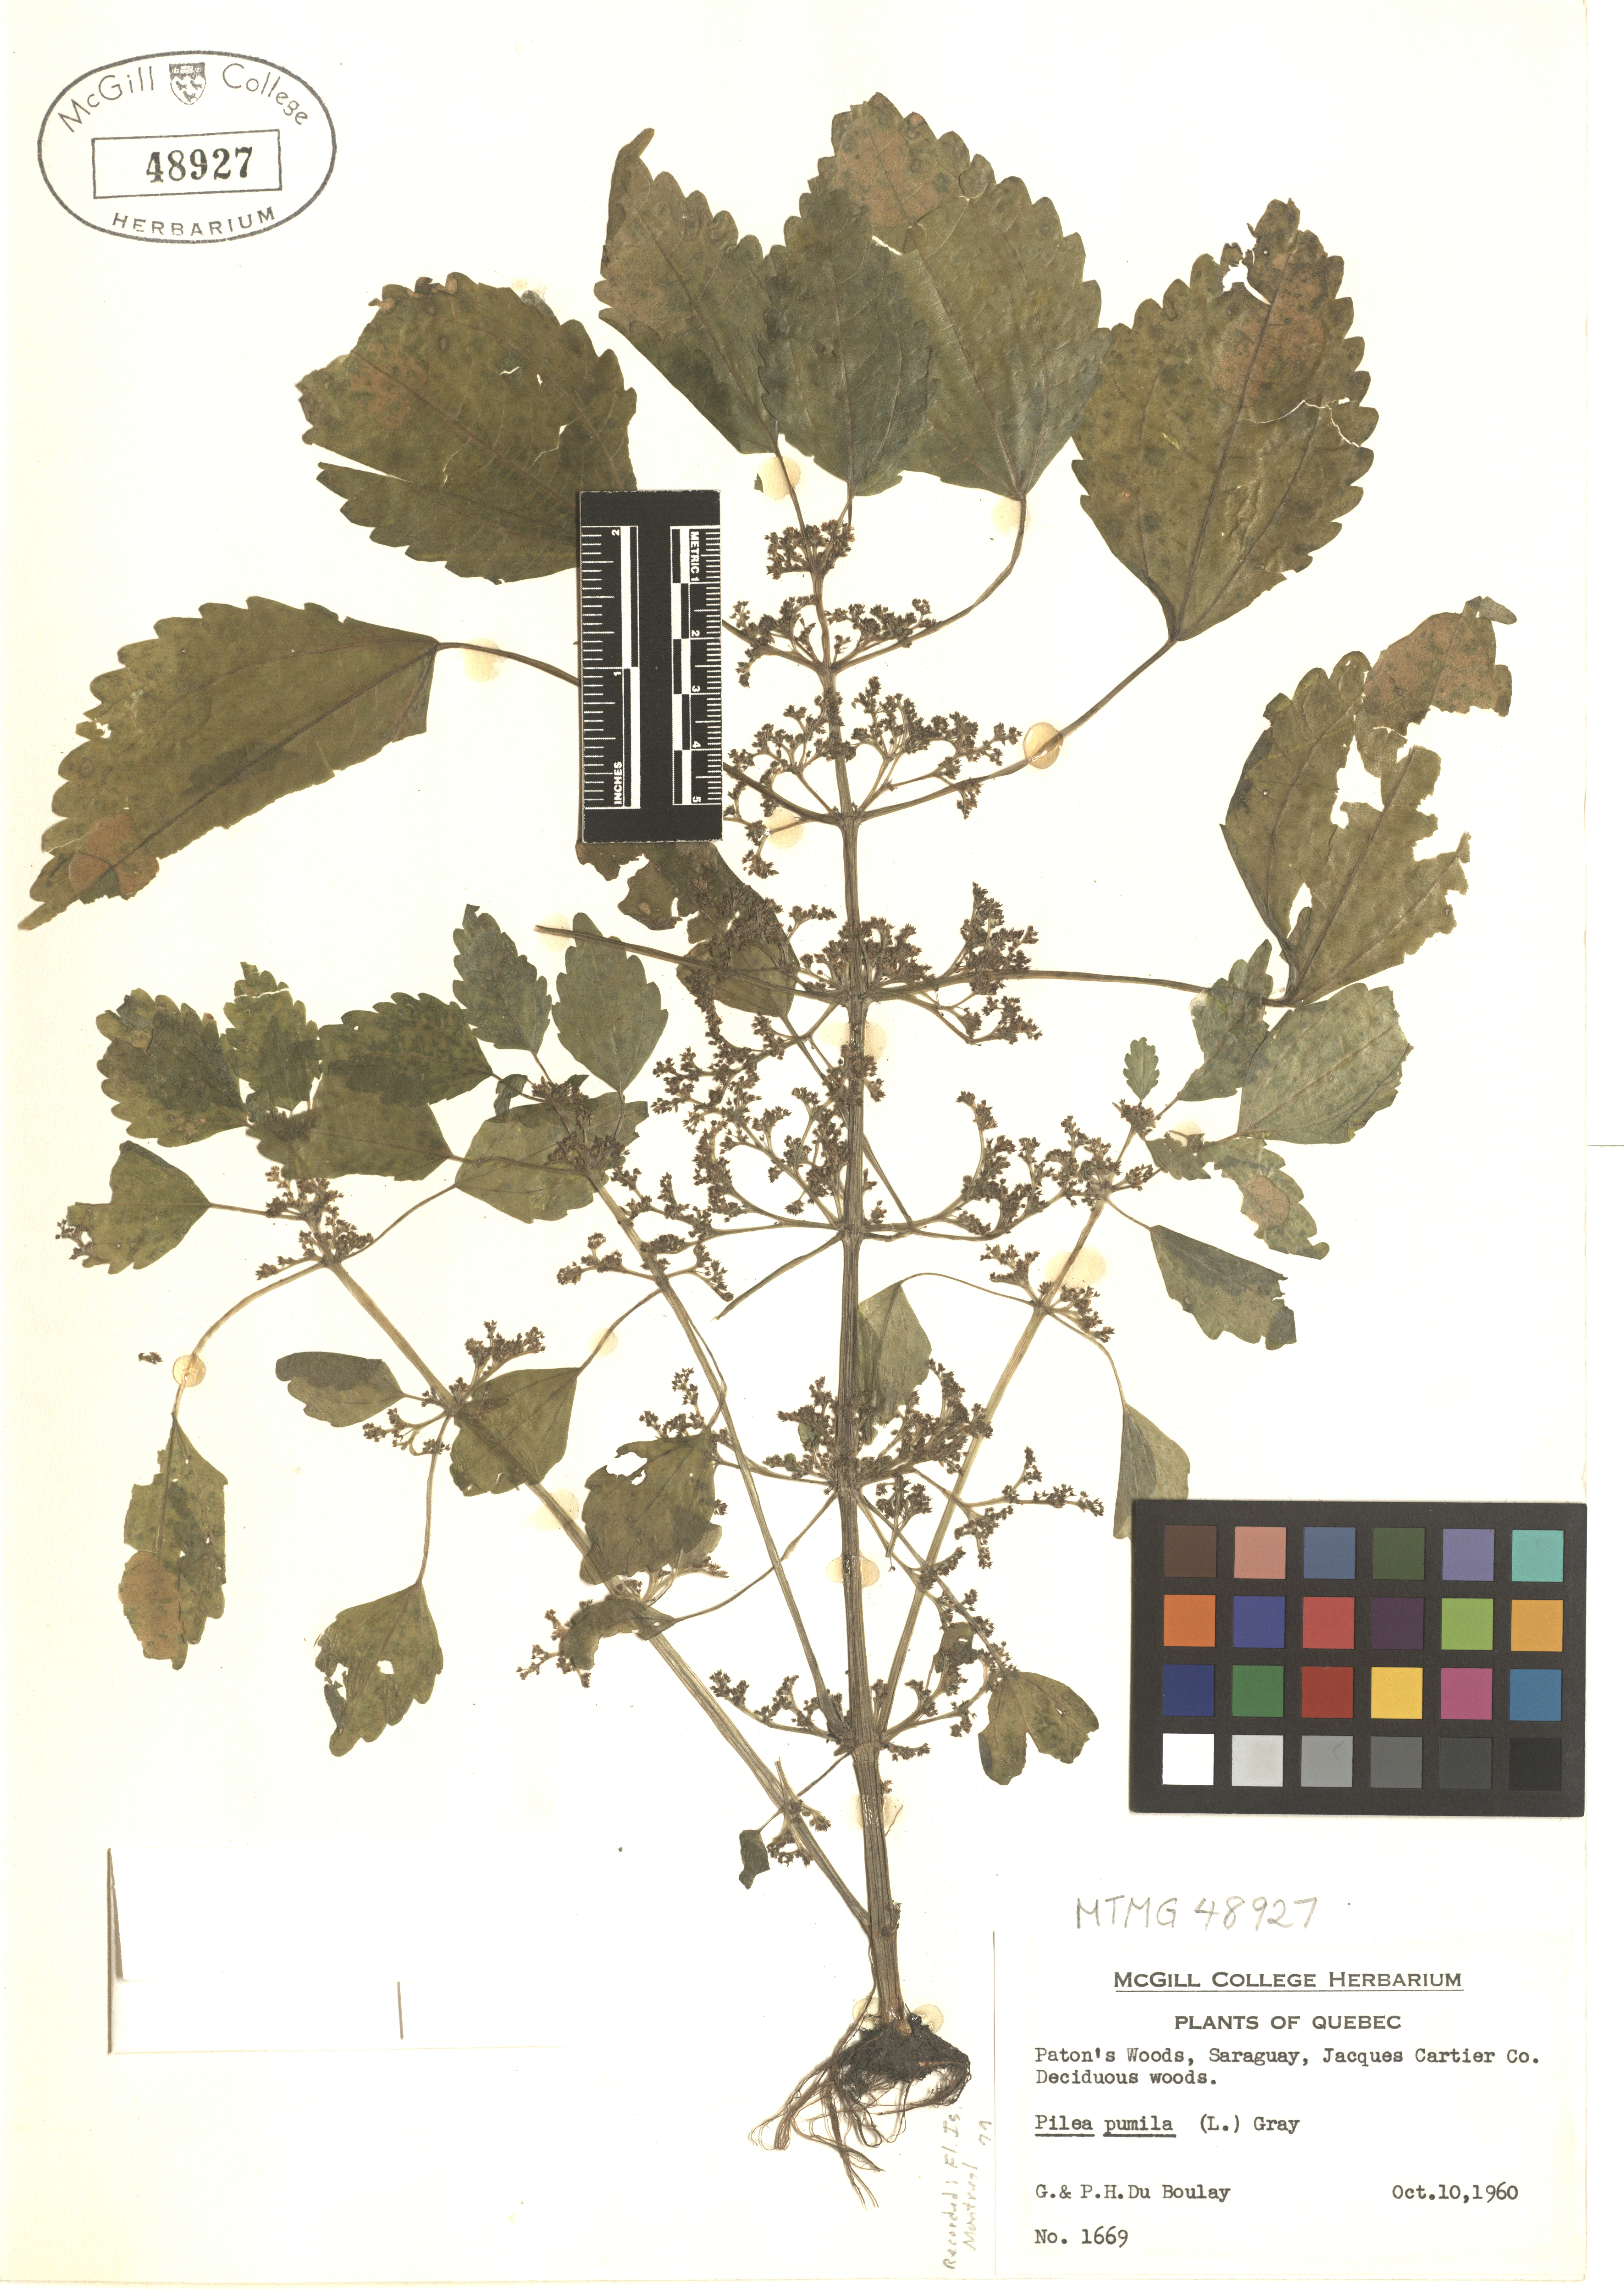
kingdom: Plantae
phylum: Tracheophyta
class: Magnoliopsida
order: Rosales
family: Urticaceae
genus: Pilea
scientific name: Pilea pumila
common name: Clearweed
